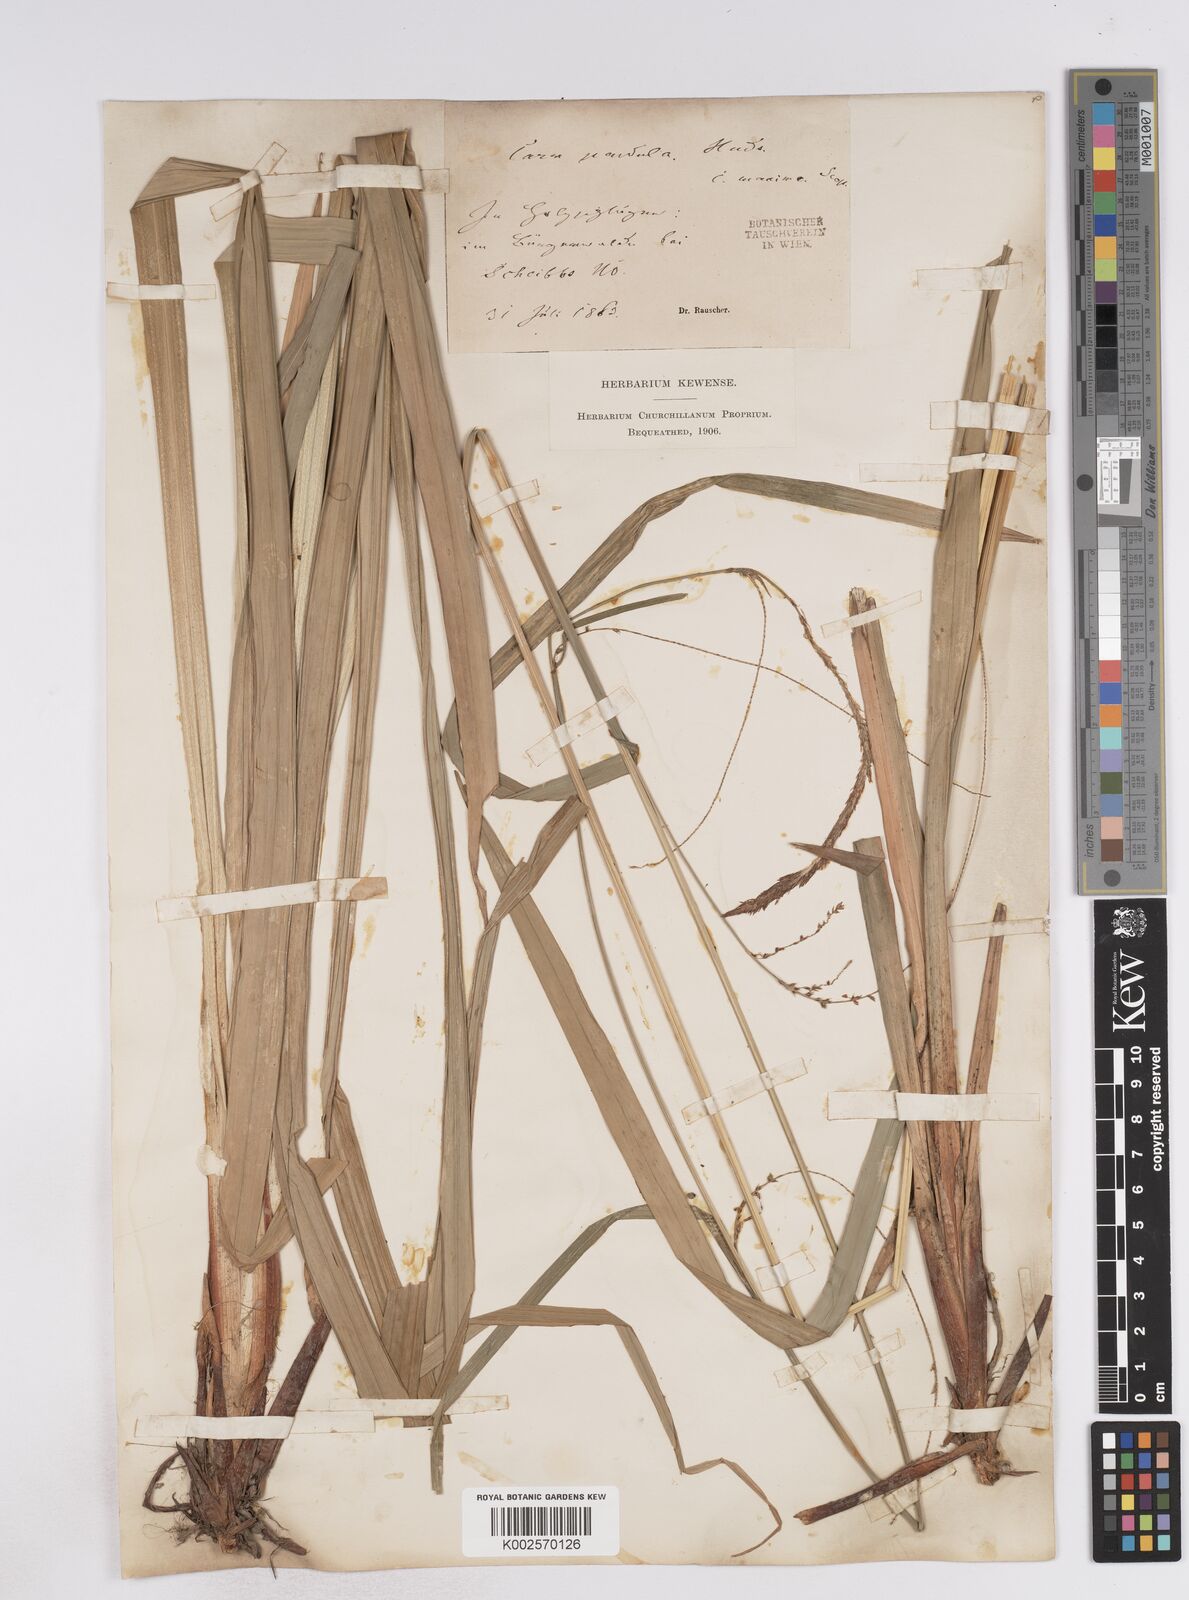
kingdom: Plantae
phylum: Tracheophyta
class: Liliopsida
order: Poales
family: Cyperaceae
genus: Carex
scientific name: Carex pendula
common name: Pendulous sedge
